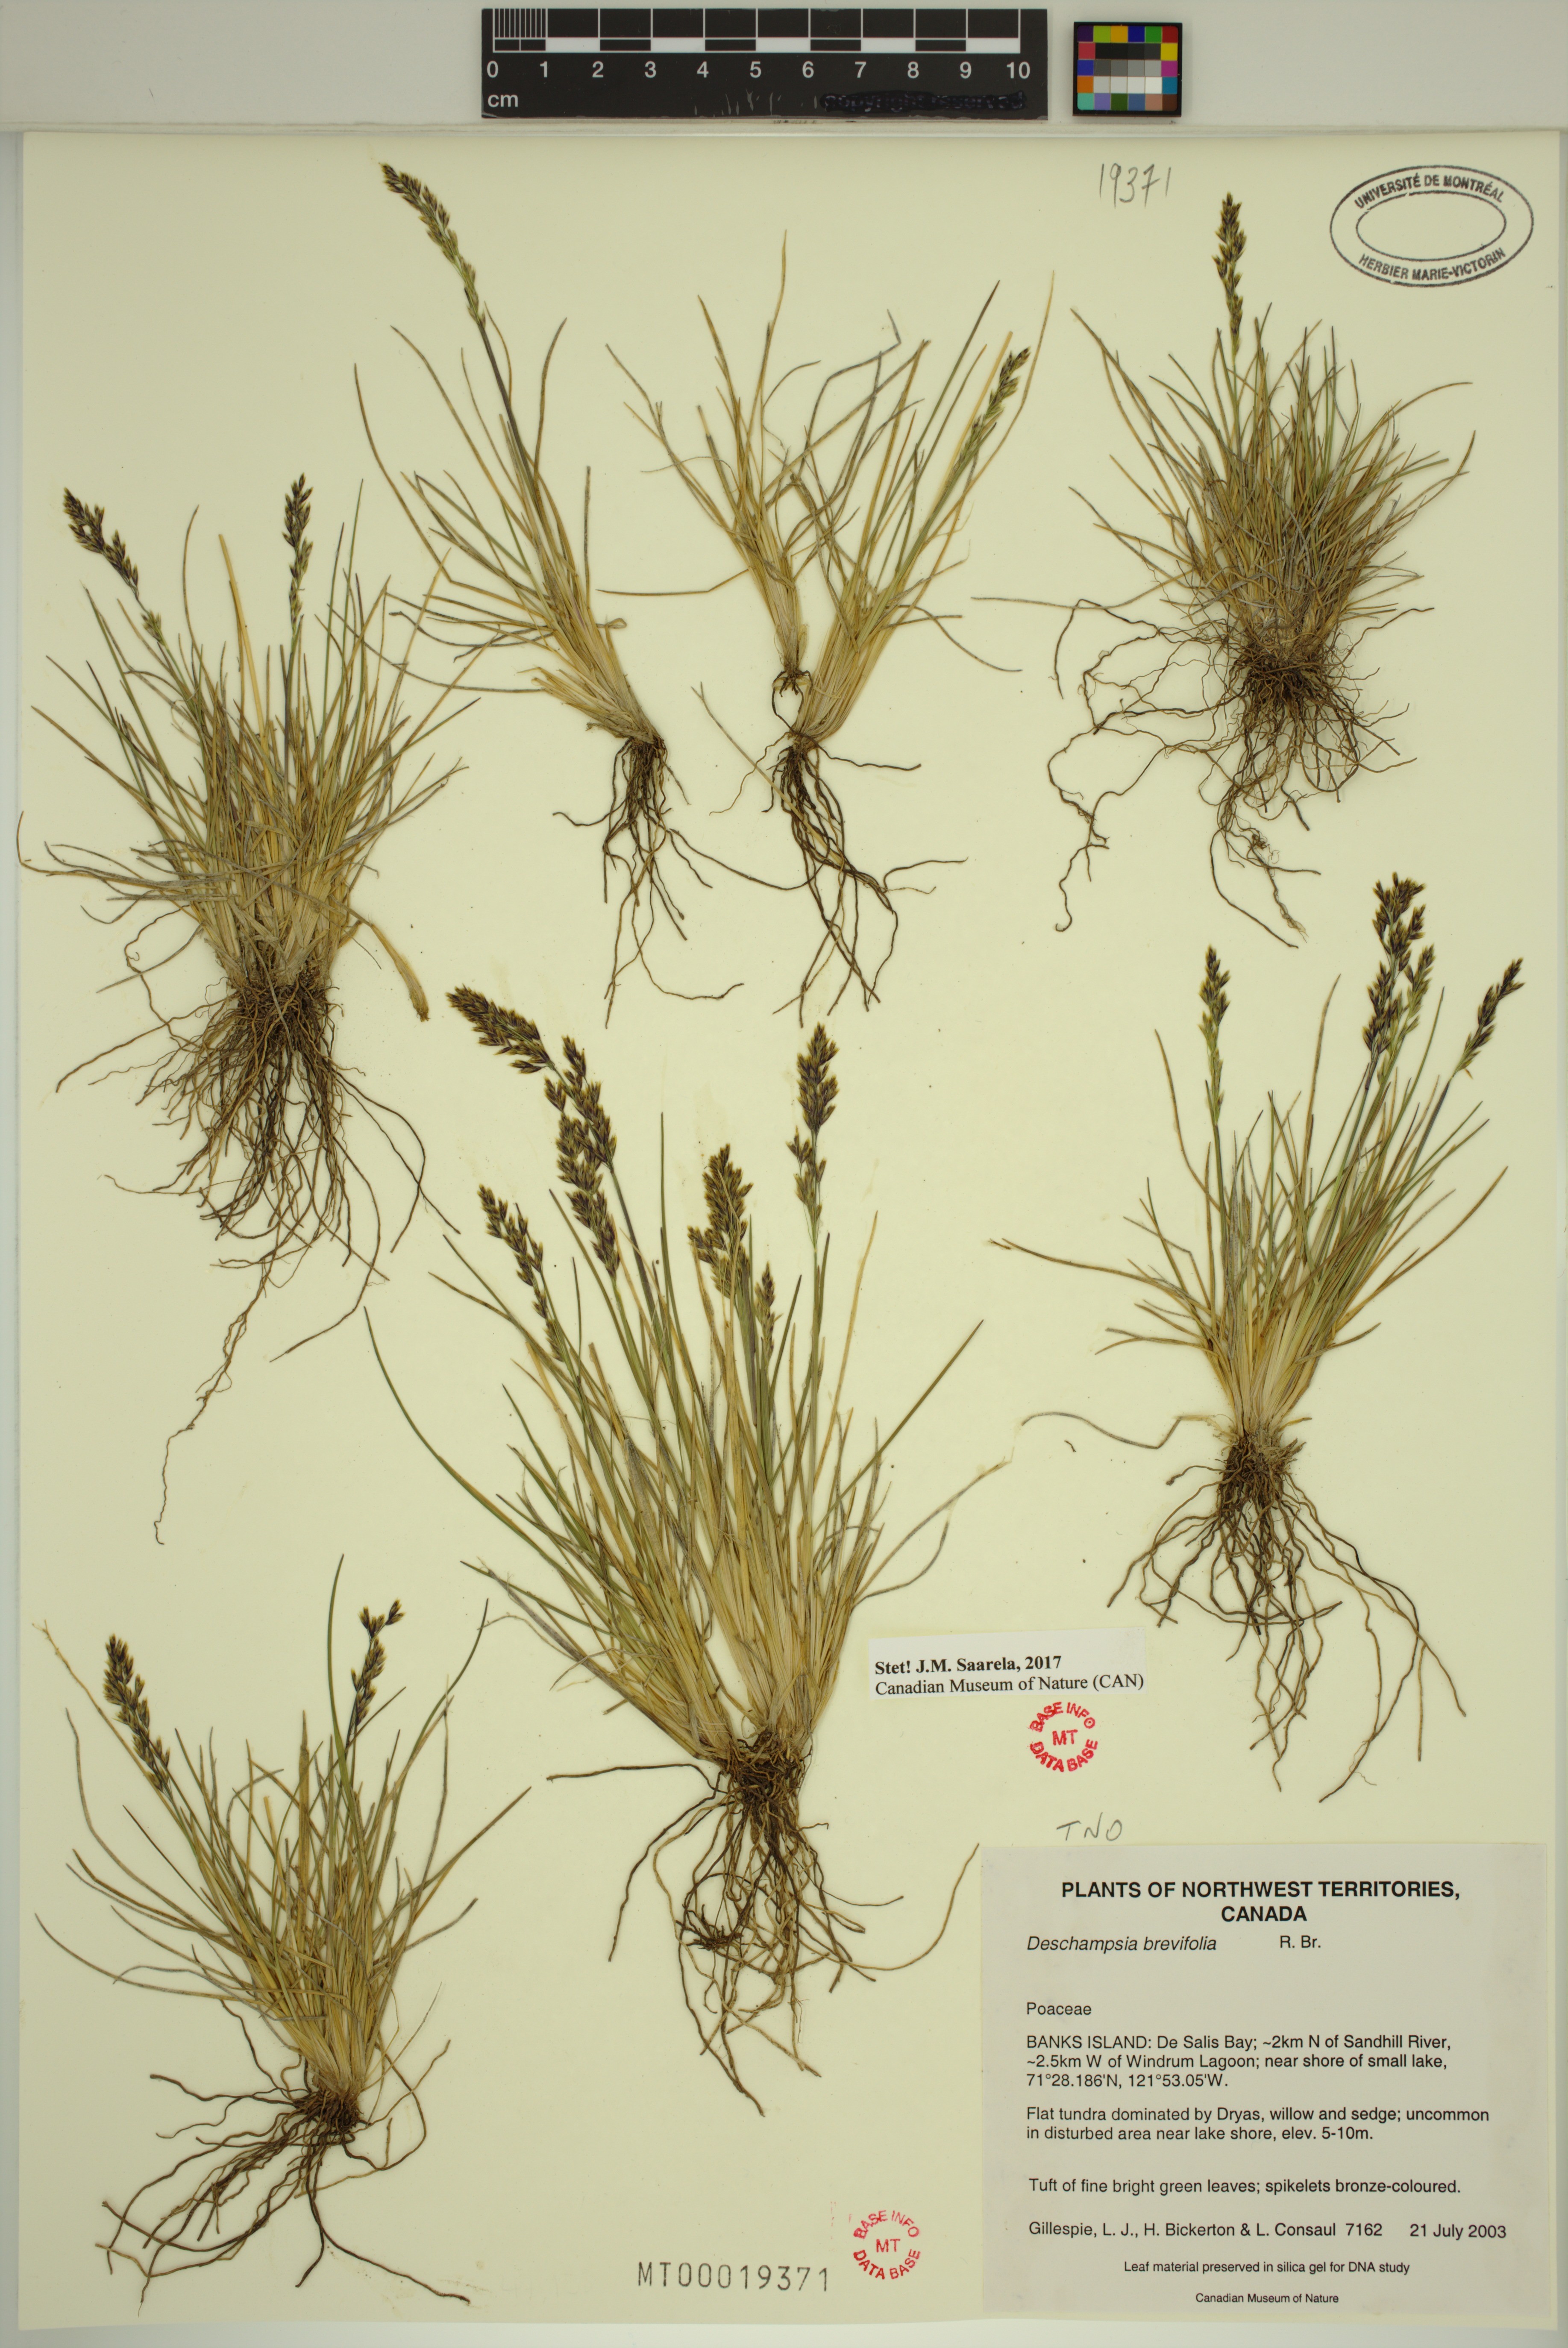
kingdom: Plantae
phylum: Tracheophyta
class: Liliopsida
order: Poales
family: Poaceae
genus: Deschampsia
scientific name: Deschampsia cespitosa
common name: Tufted hair-grass
